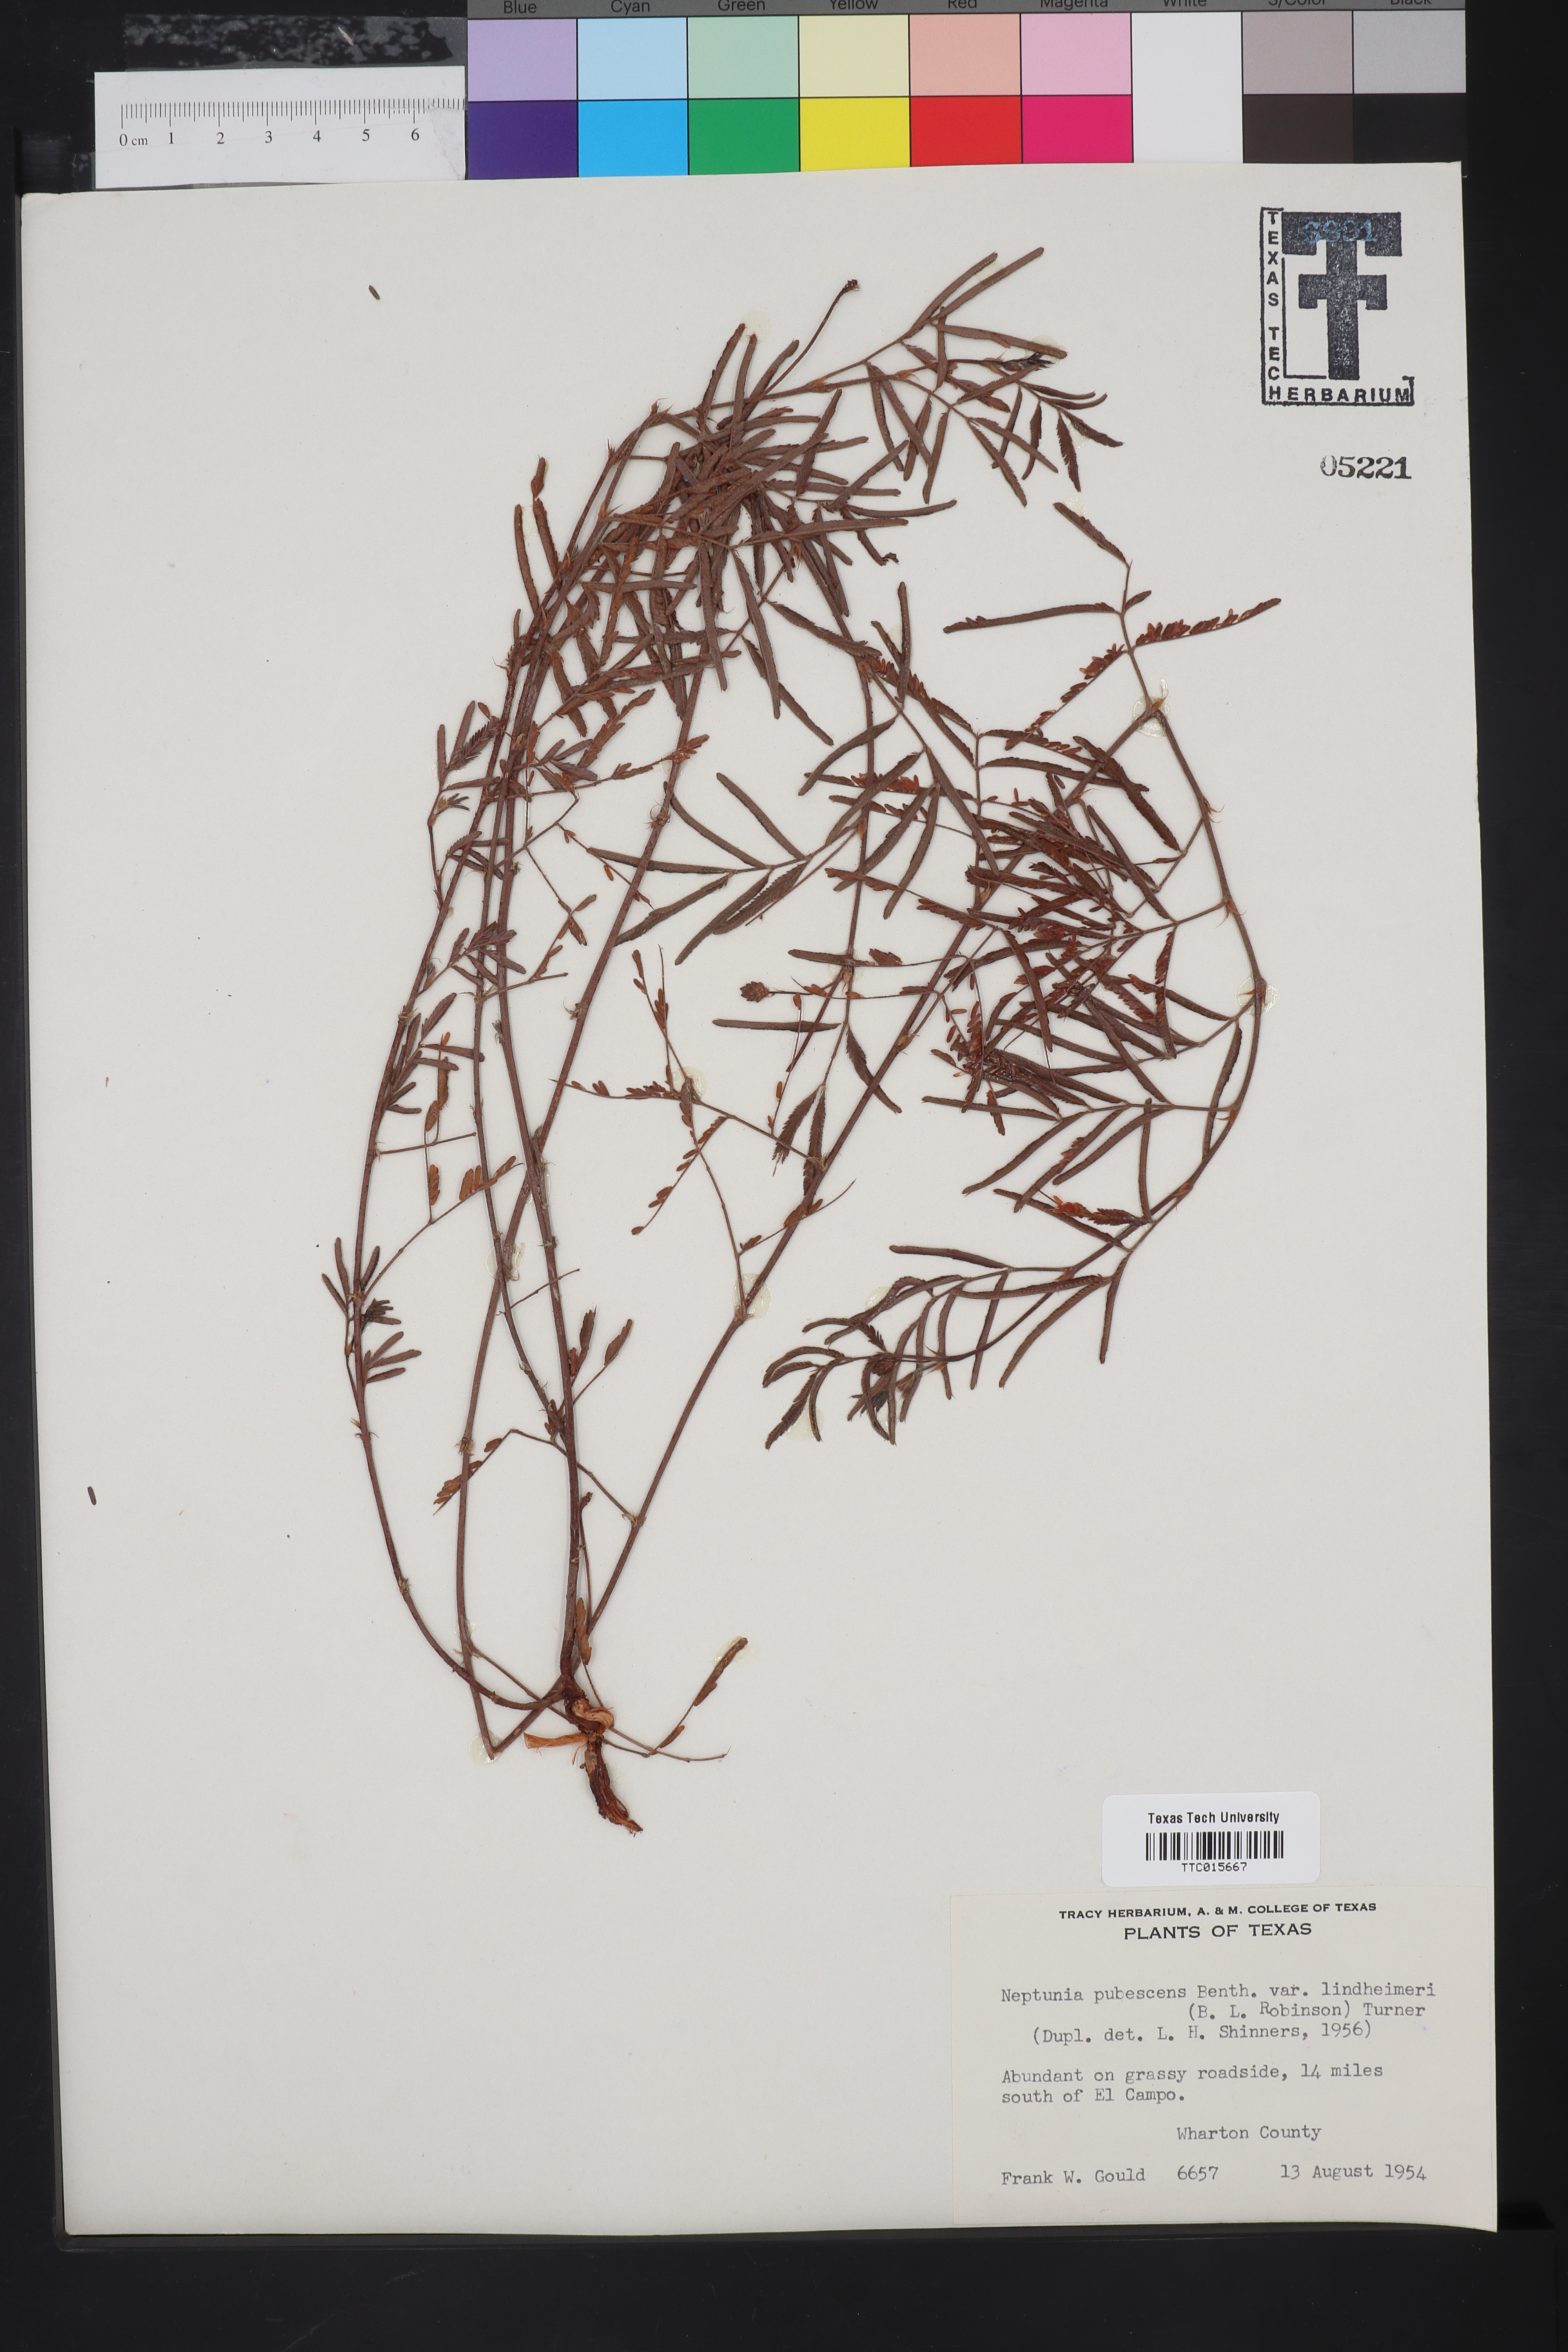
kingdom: Plantae
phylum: Tracheophyta
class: Magnoliopsida
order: Fabales
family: Fabaceae
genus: Neptunia
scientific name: Neptunia pubescens
